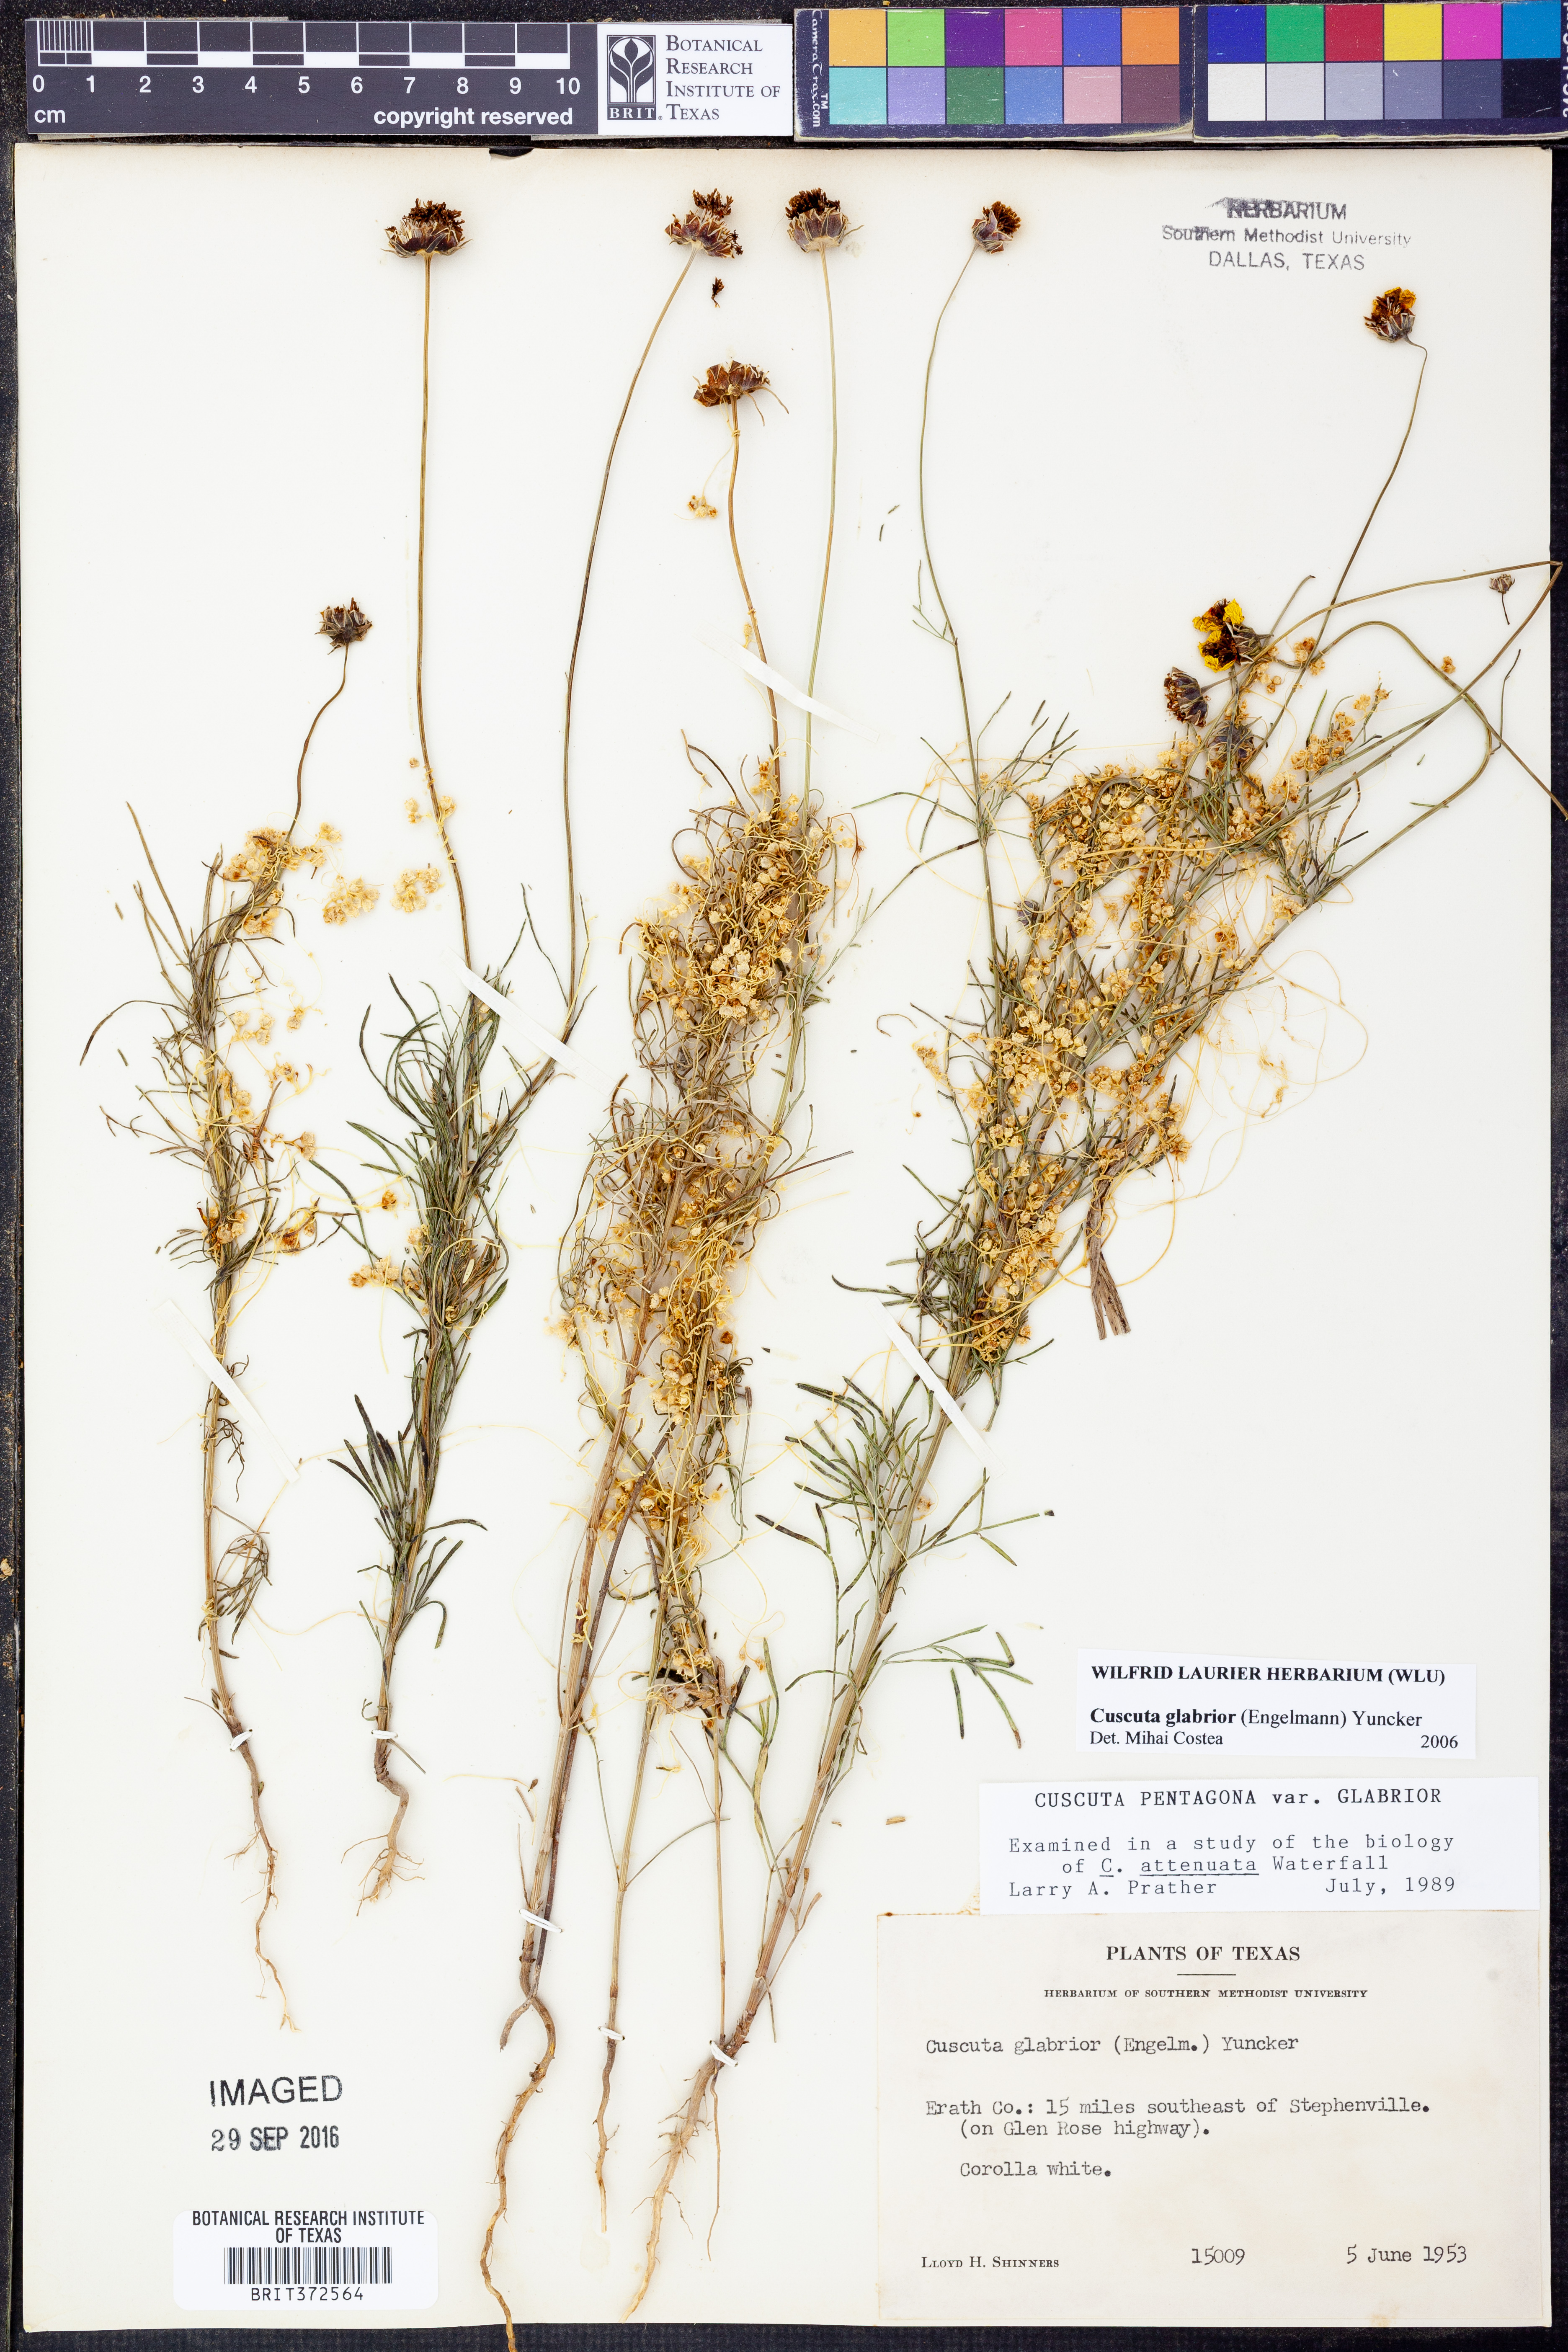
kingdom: Plantae
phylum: Tracheophyta
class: Magnoliopsida
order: Solanales
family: Convolvulaceae
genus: Cuscuta
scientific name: Cuscuta glabrior
